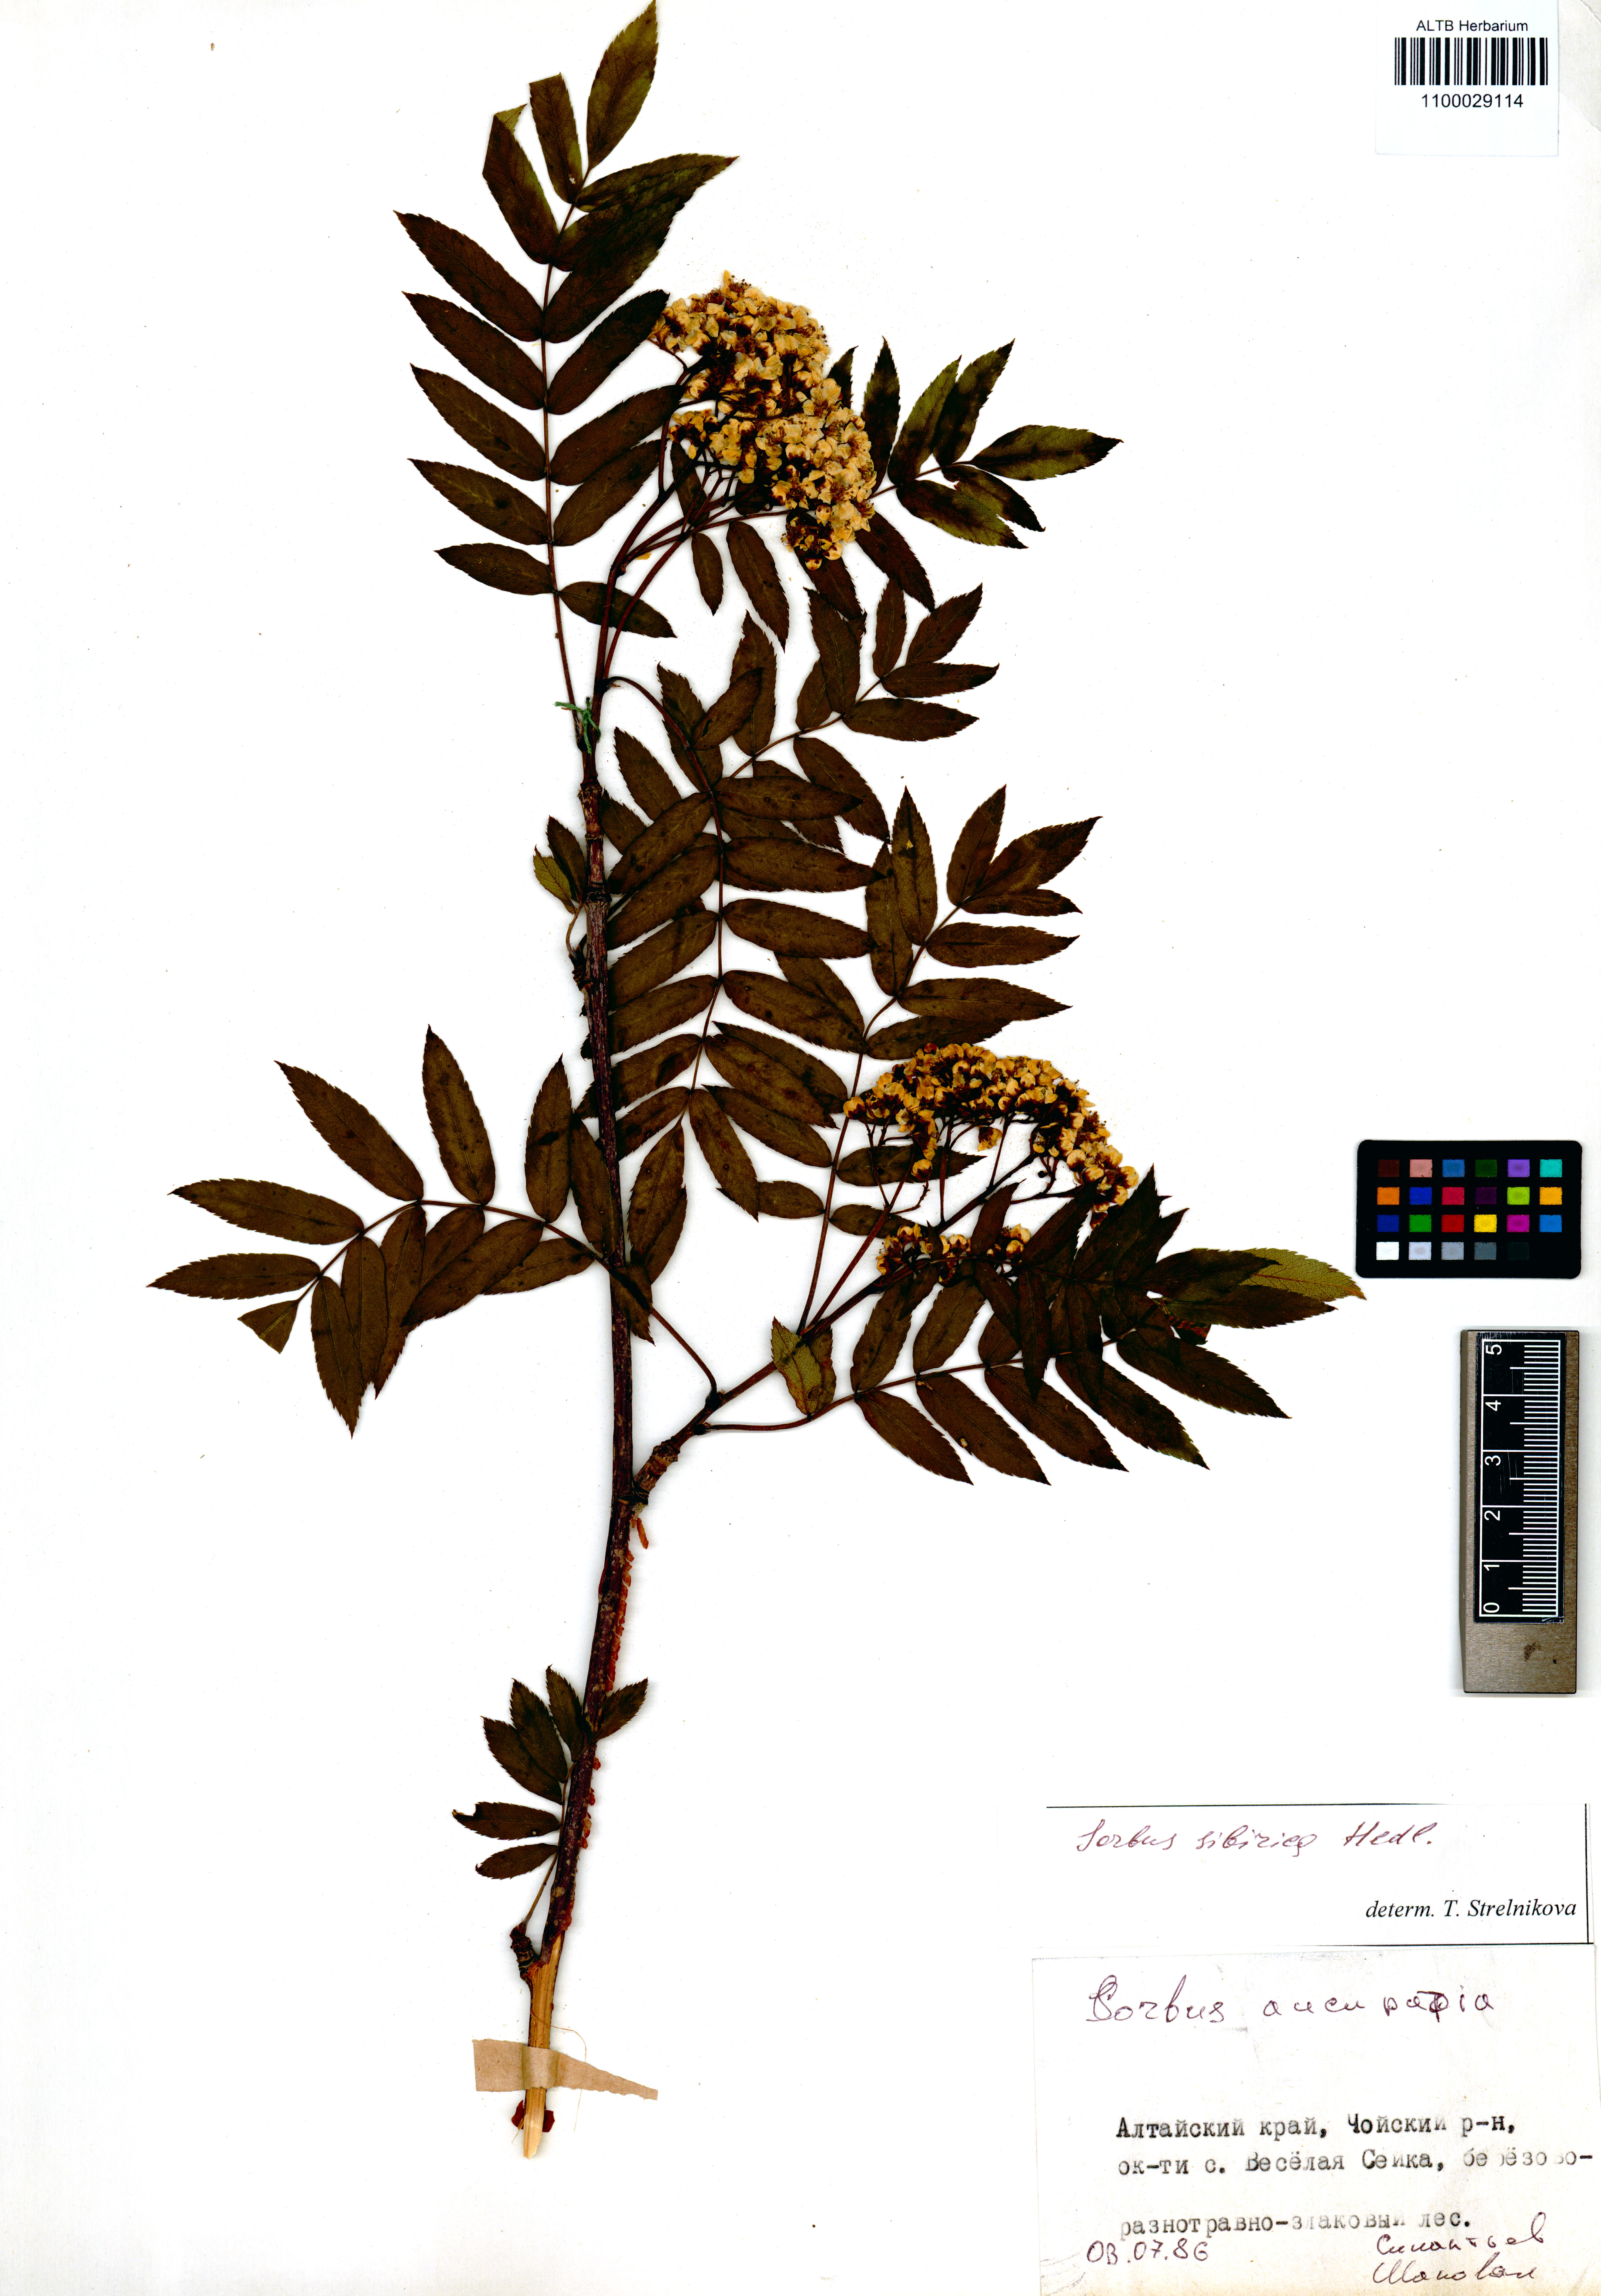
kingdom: Plantae
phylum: Tracheophyta
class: Magnoliopsida
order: Rosales
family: Rosaceae
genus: Sorbus
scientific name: Sorbus aucuparia
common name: Rowan
